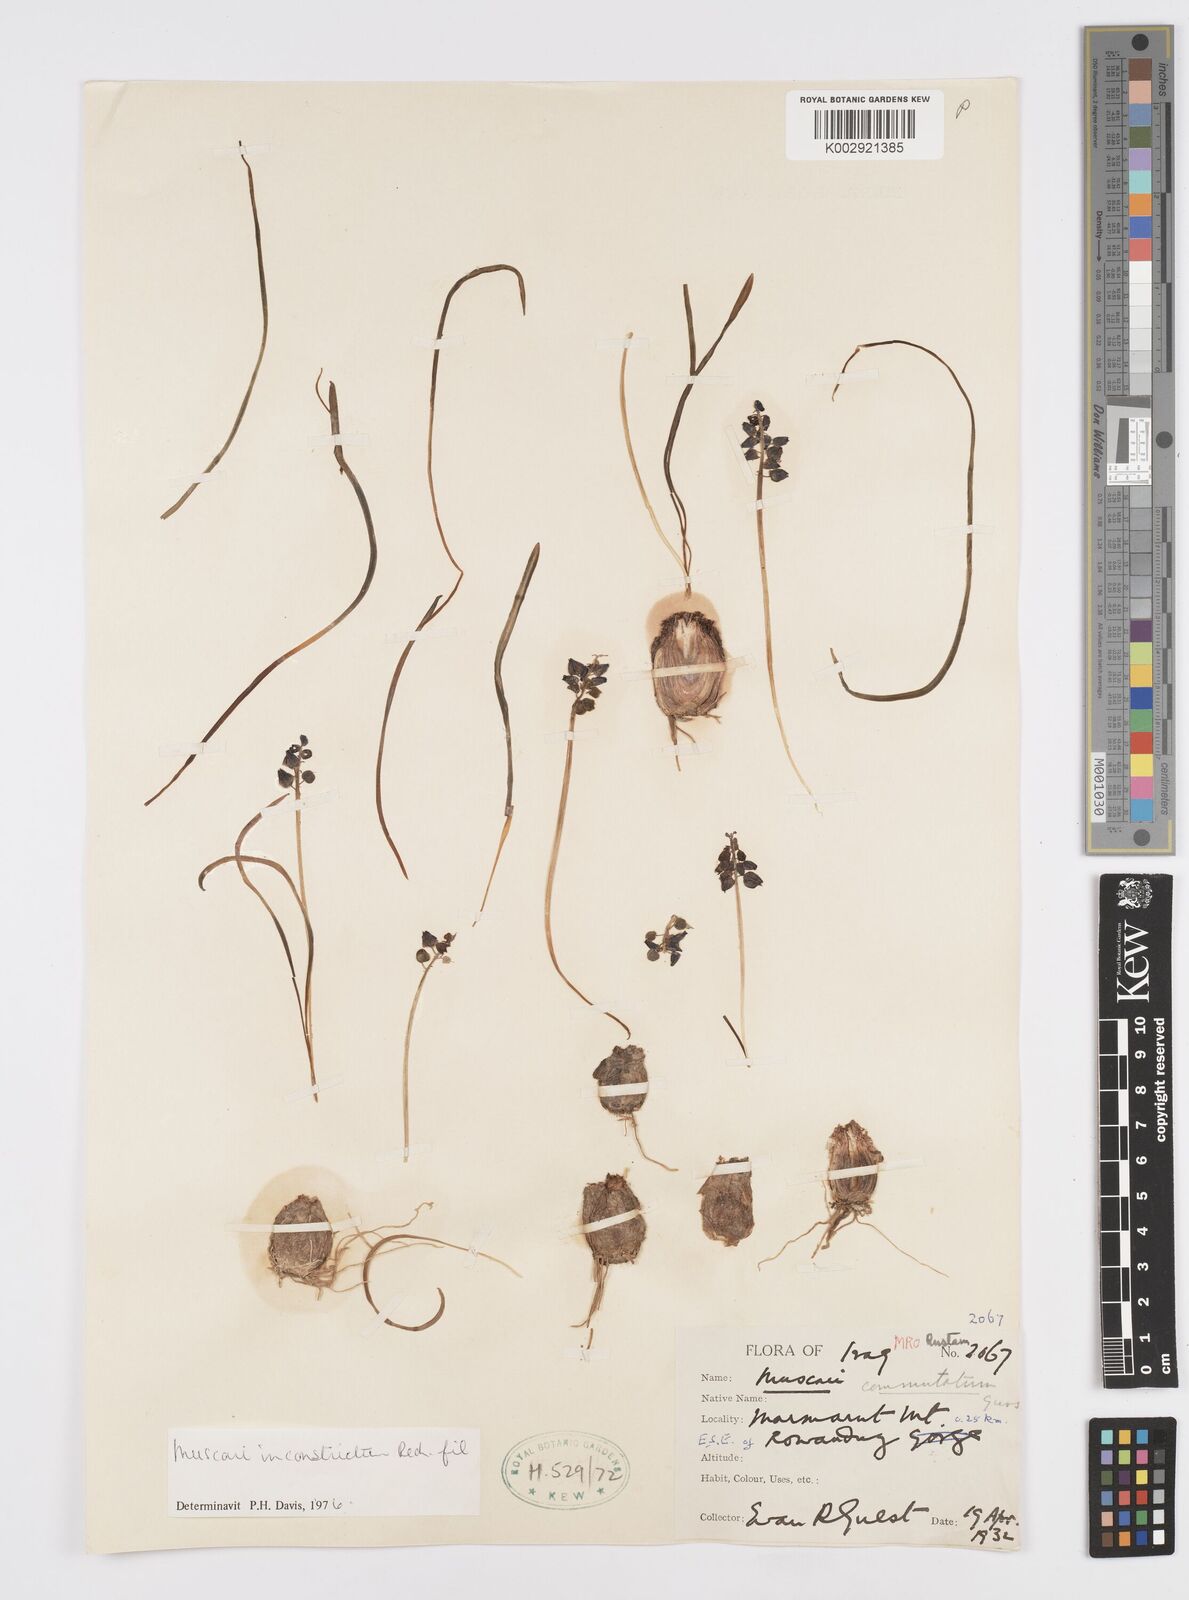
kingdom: Plantae
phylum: Tracheophyta
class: Liliopsida
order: Asparagales
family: Asparagaceae
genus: Muscari
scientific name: Muscari inconstrictum
